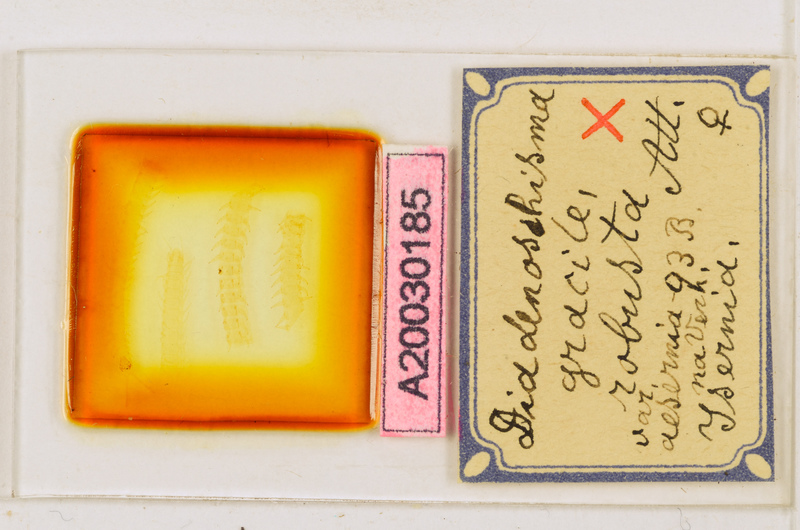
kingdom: Animalia
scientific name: Animalia
